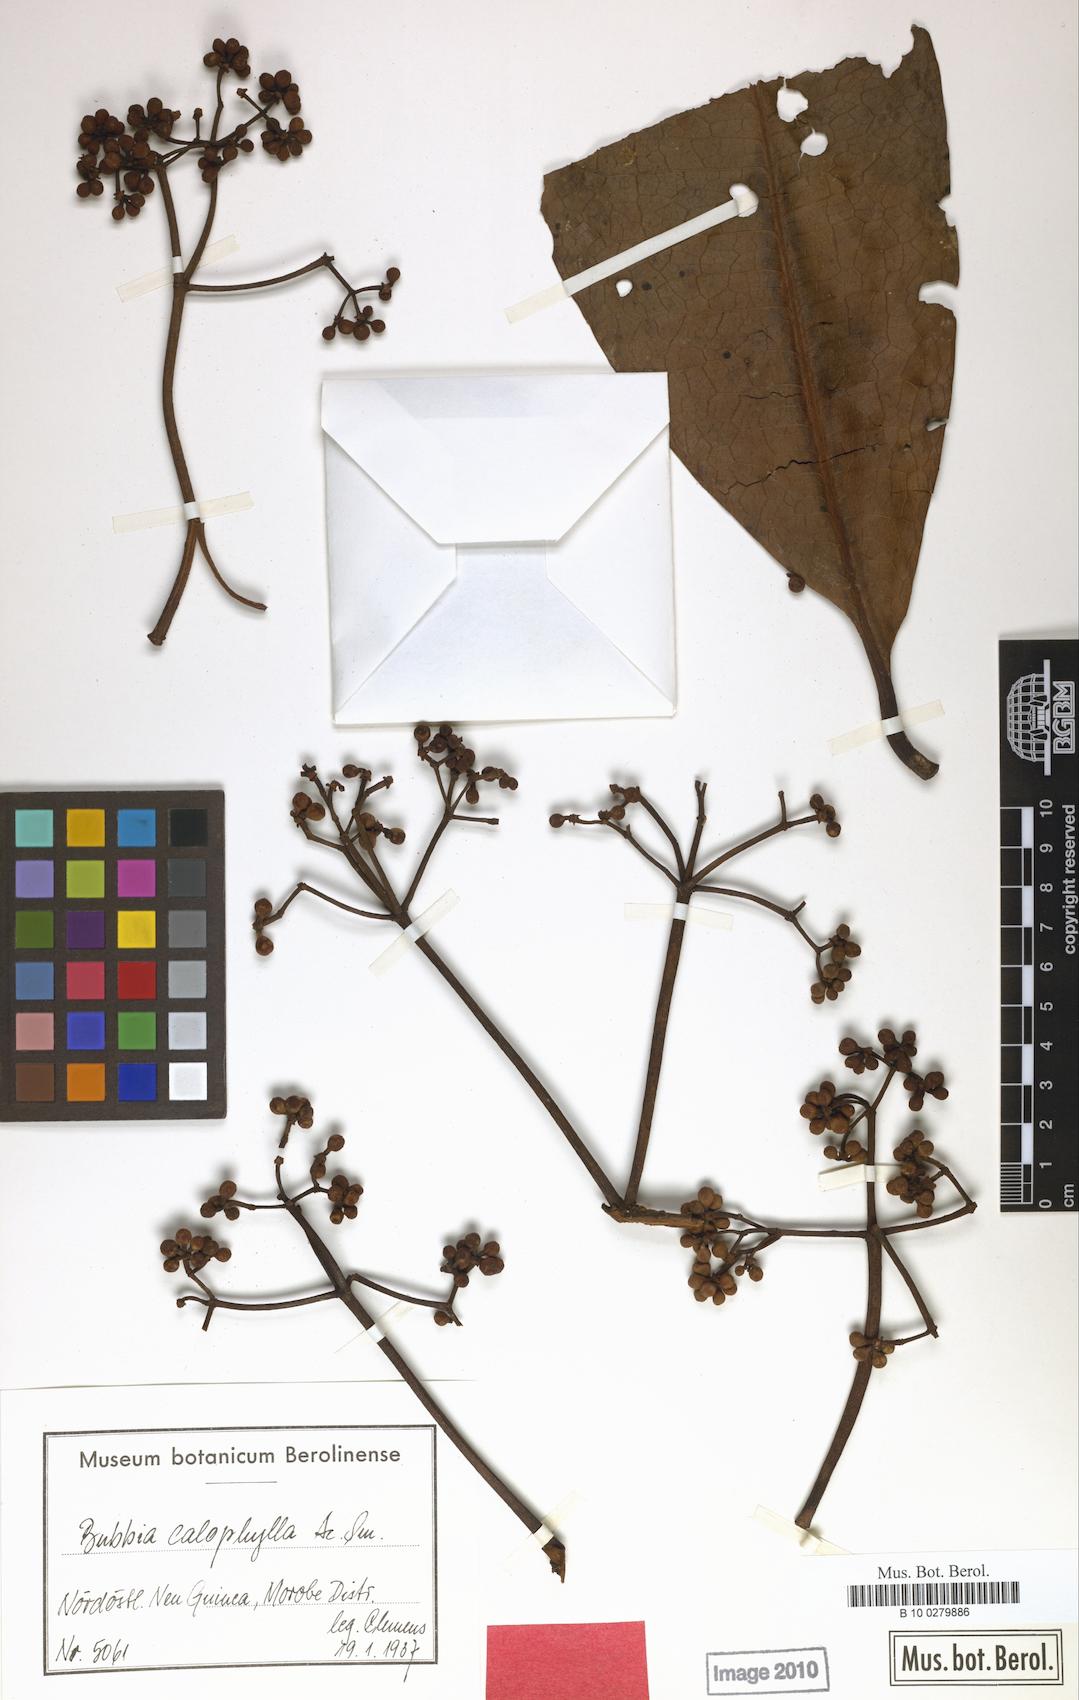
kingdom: Plantae
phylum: Tracheophyta
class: Magnoliopsida
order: Canellales
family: Winteraceae
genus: Zygogynum
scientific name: Zygogynum calophyllum
